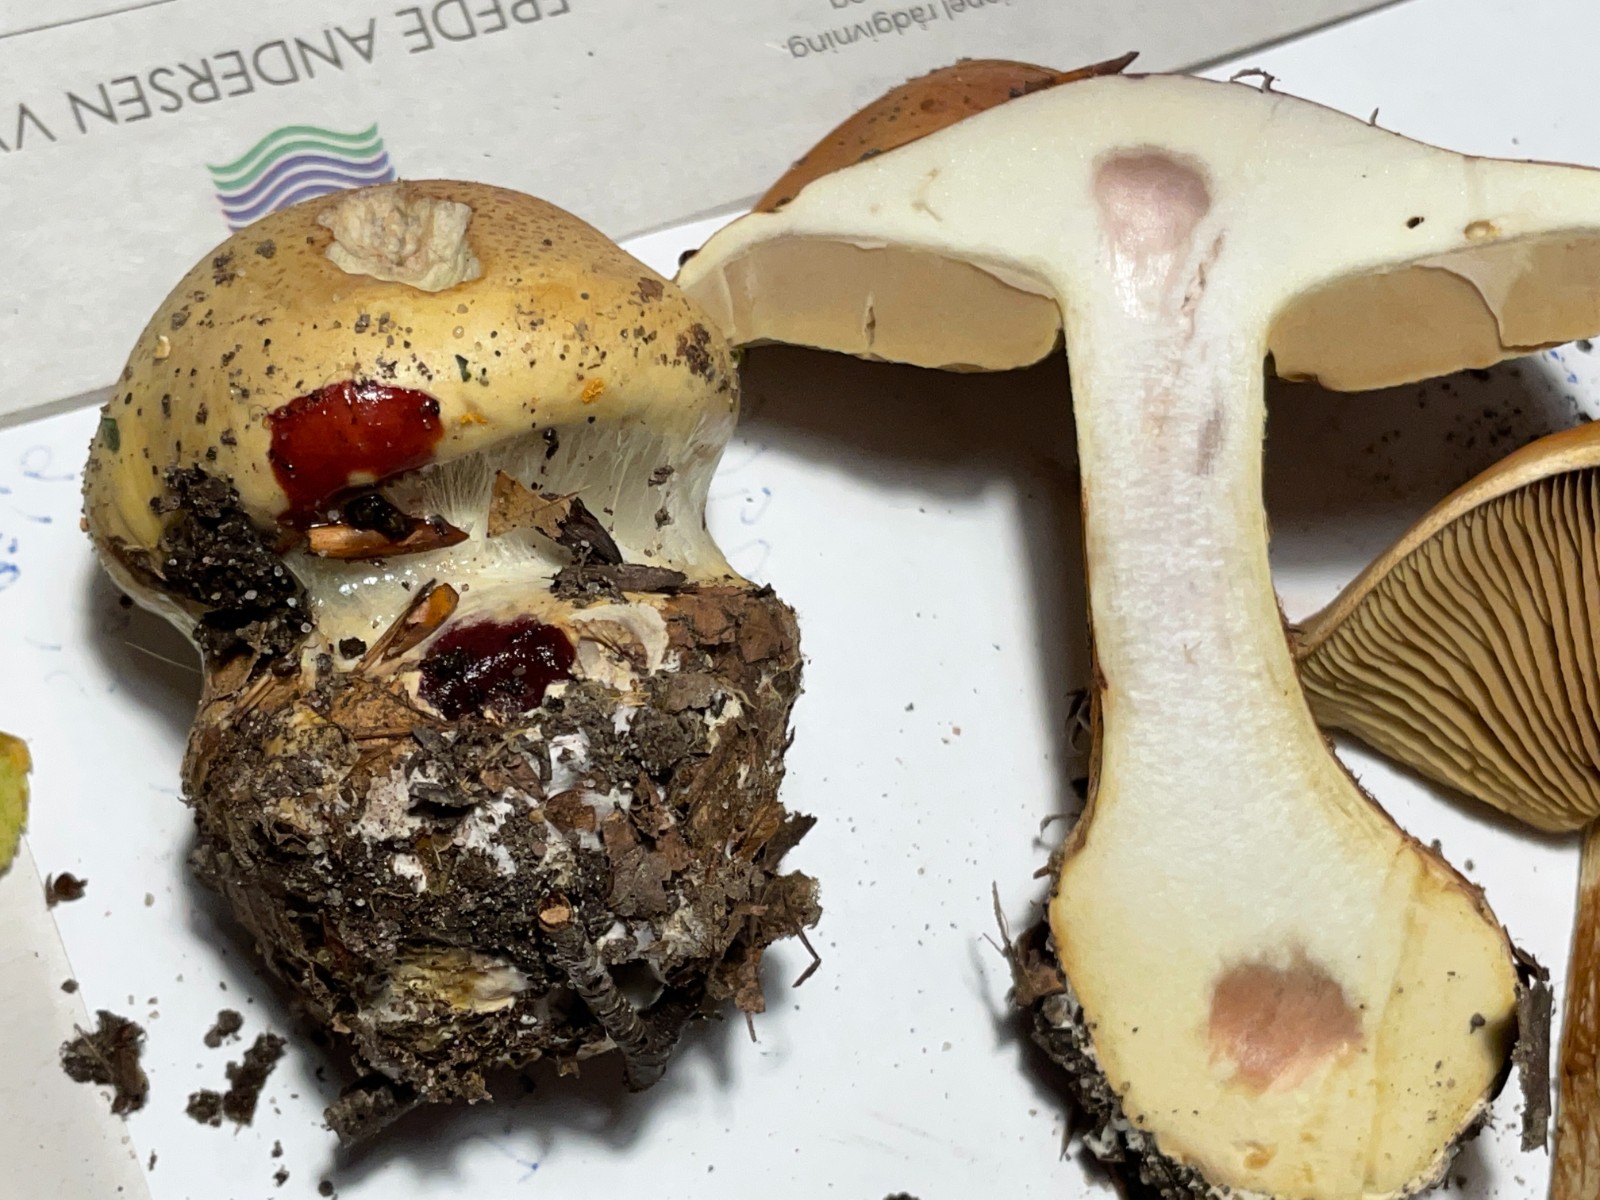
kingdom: Fungi
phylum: Basidiomycota
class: Agaricomycetes
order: Agaricales
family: Cortinariaceae
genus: Calonarius
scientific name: Calonarius elegantissimus
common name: orangegylden slørhat
